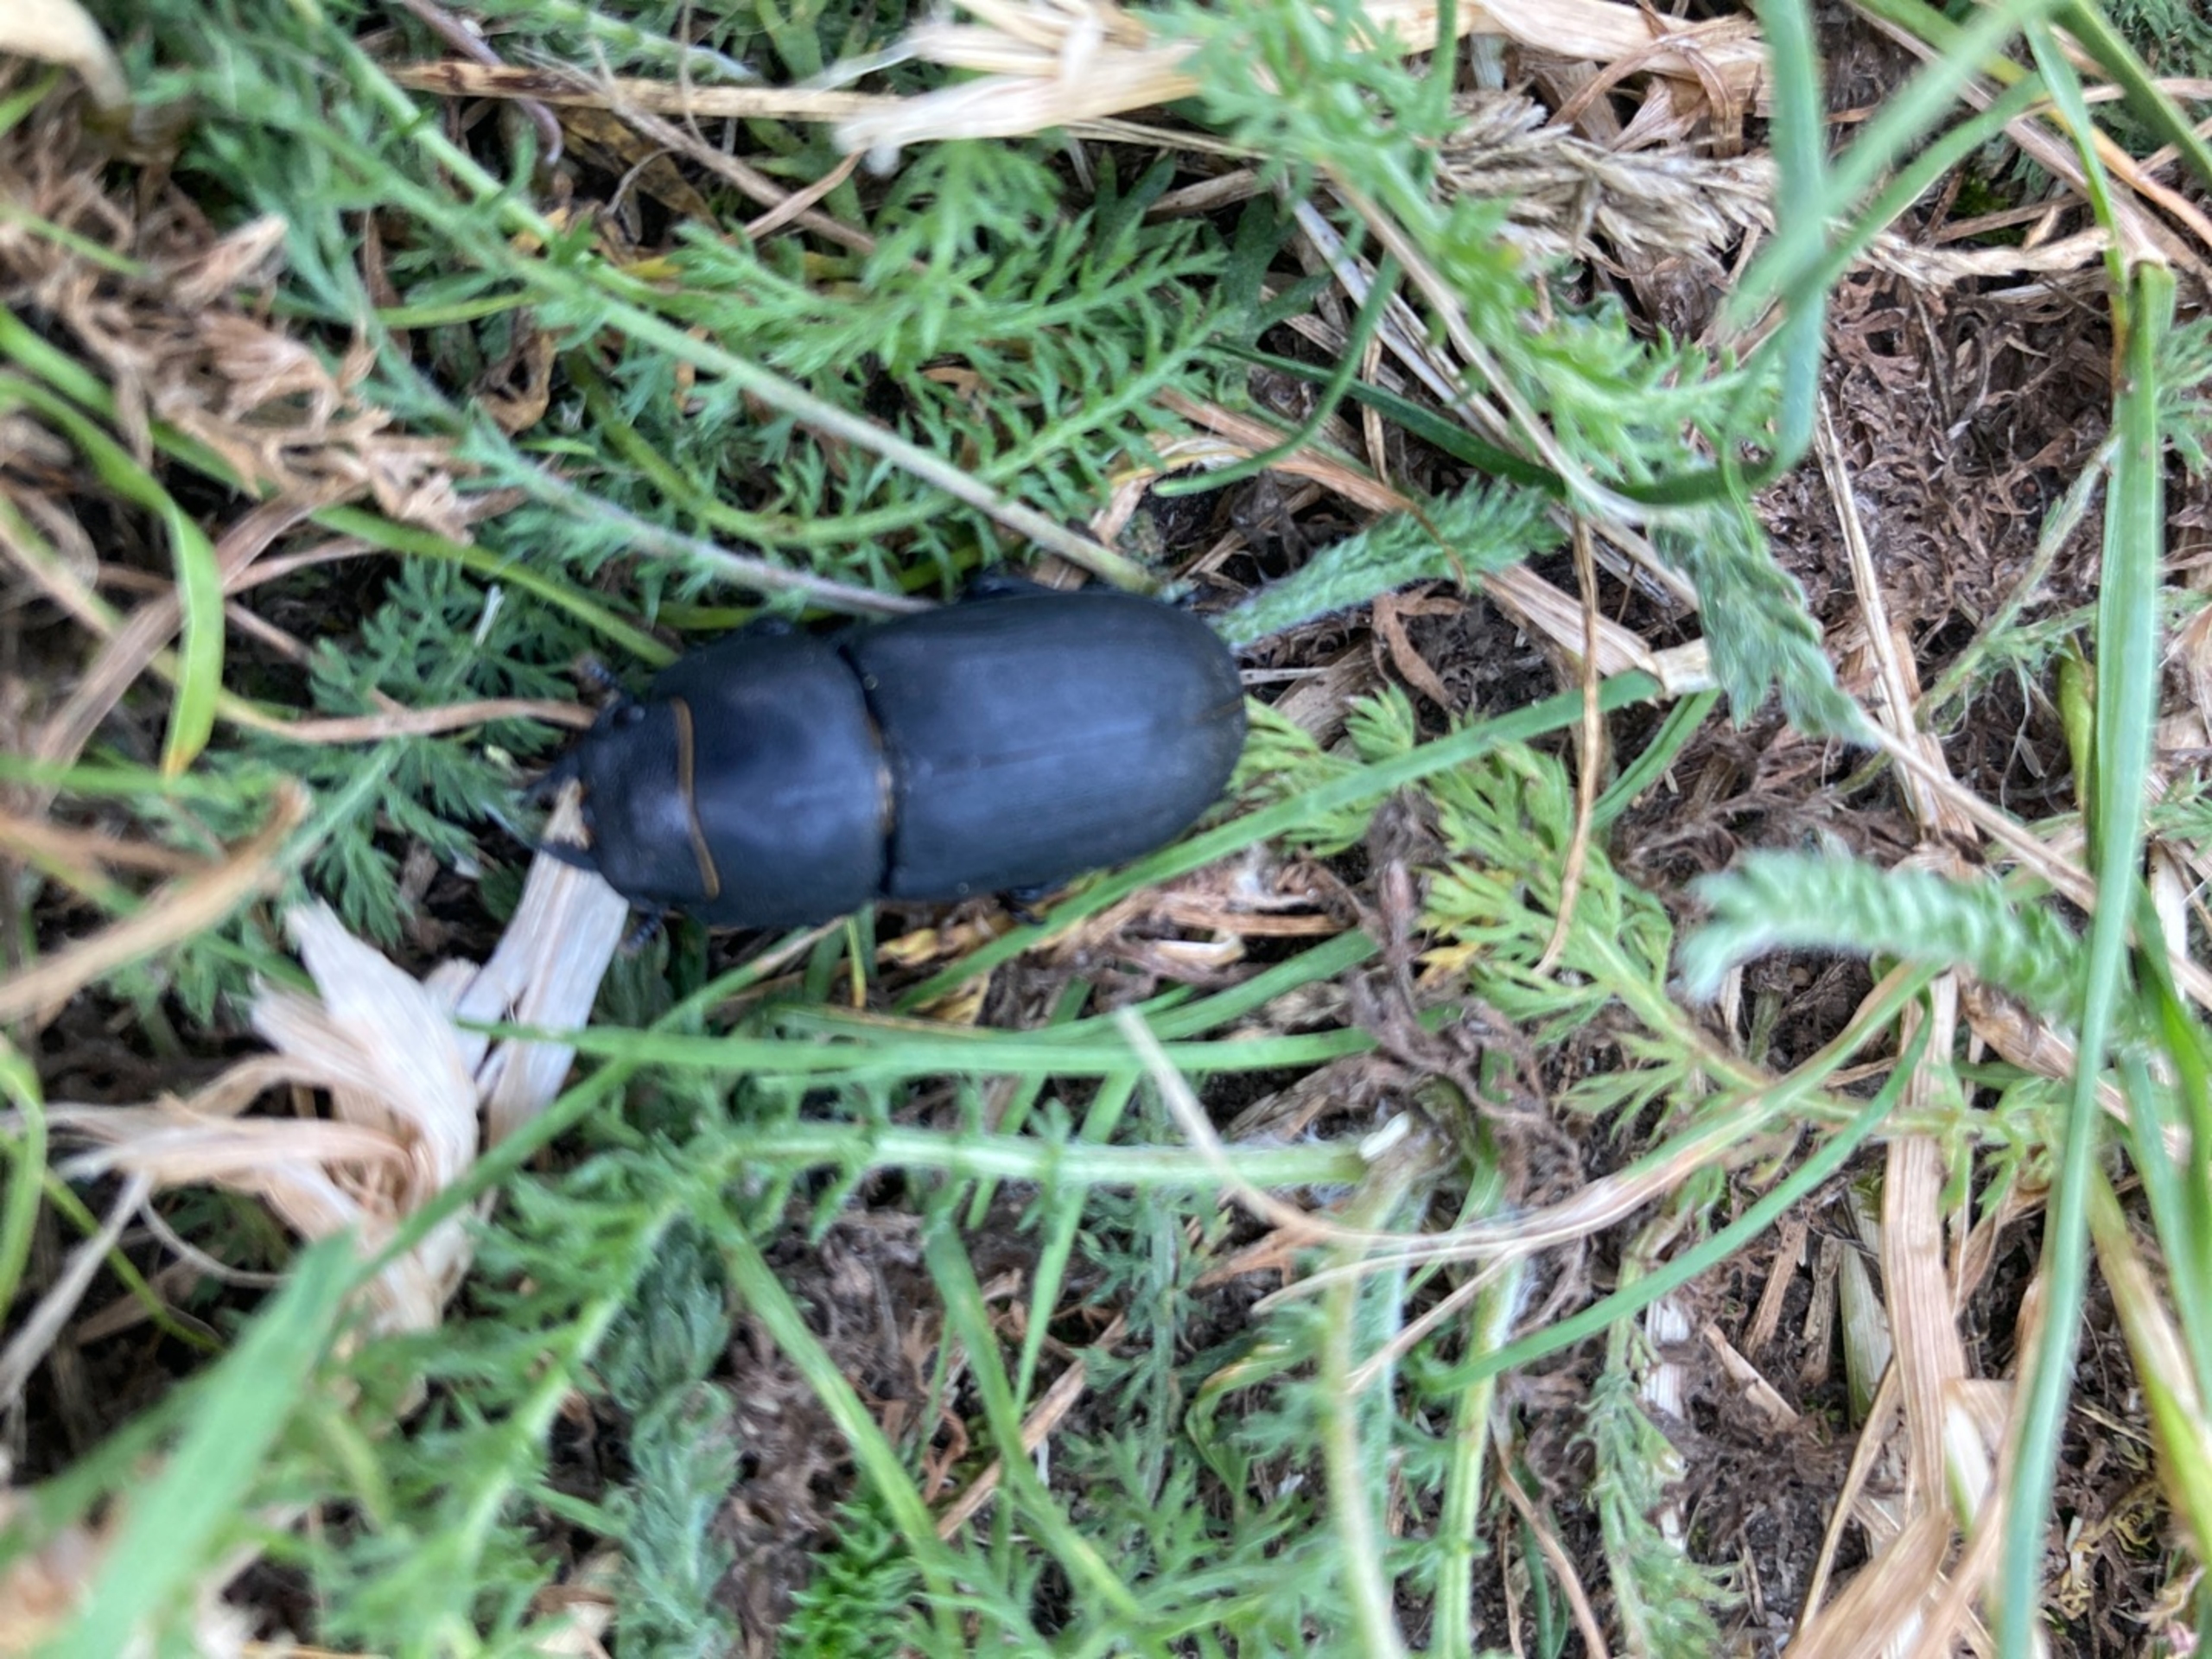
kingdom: Animalia
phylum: Arthropoda
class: Insecta
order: Coleoptera
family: Lucanidae
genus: Dorcus
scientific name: Dorcus parallelipipedus
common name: Bøghjort
